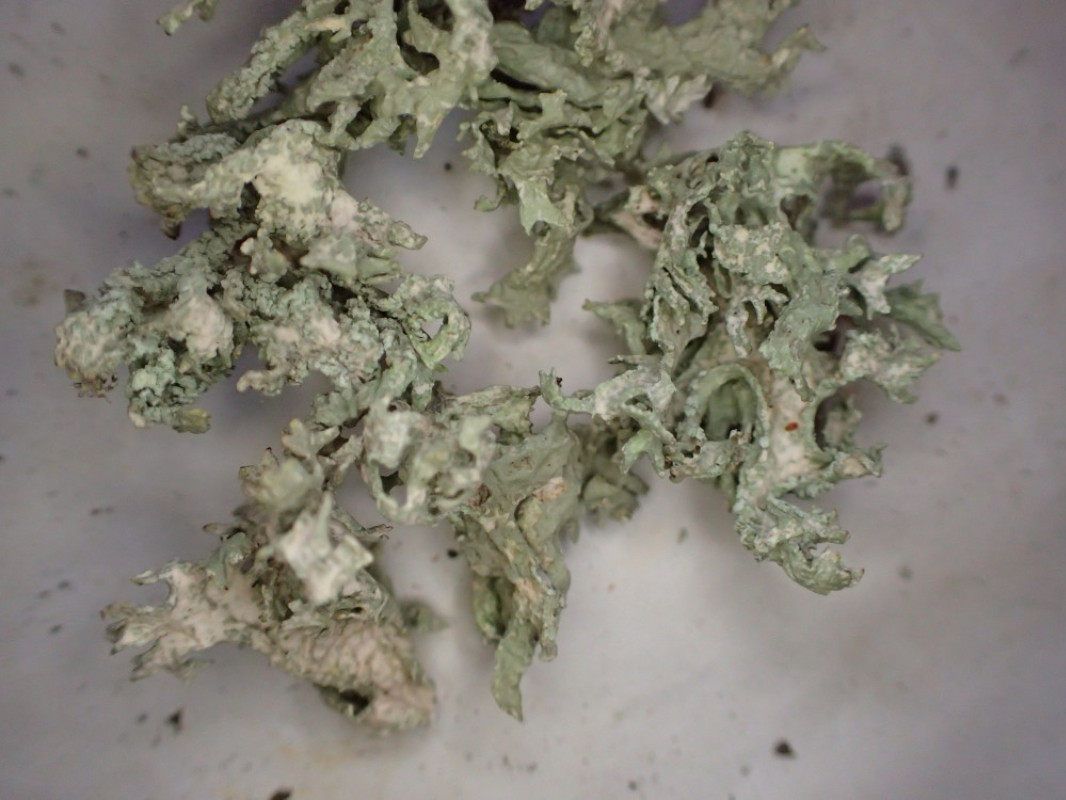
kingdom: Fungi
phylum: Ascomycota
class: Lecanoromycetes
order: Lecanorales
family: Parmeliaceae
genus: Evernia
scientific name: Evernia prunastri
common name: almindelig slåenlav
